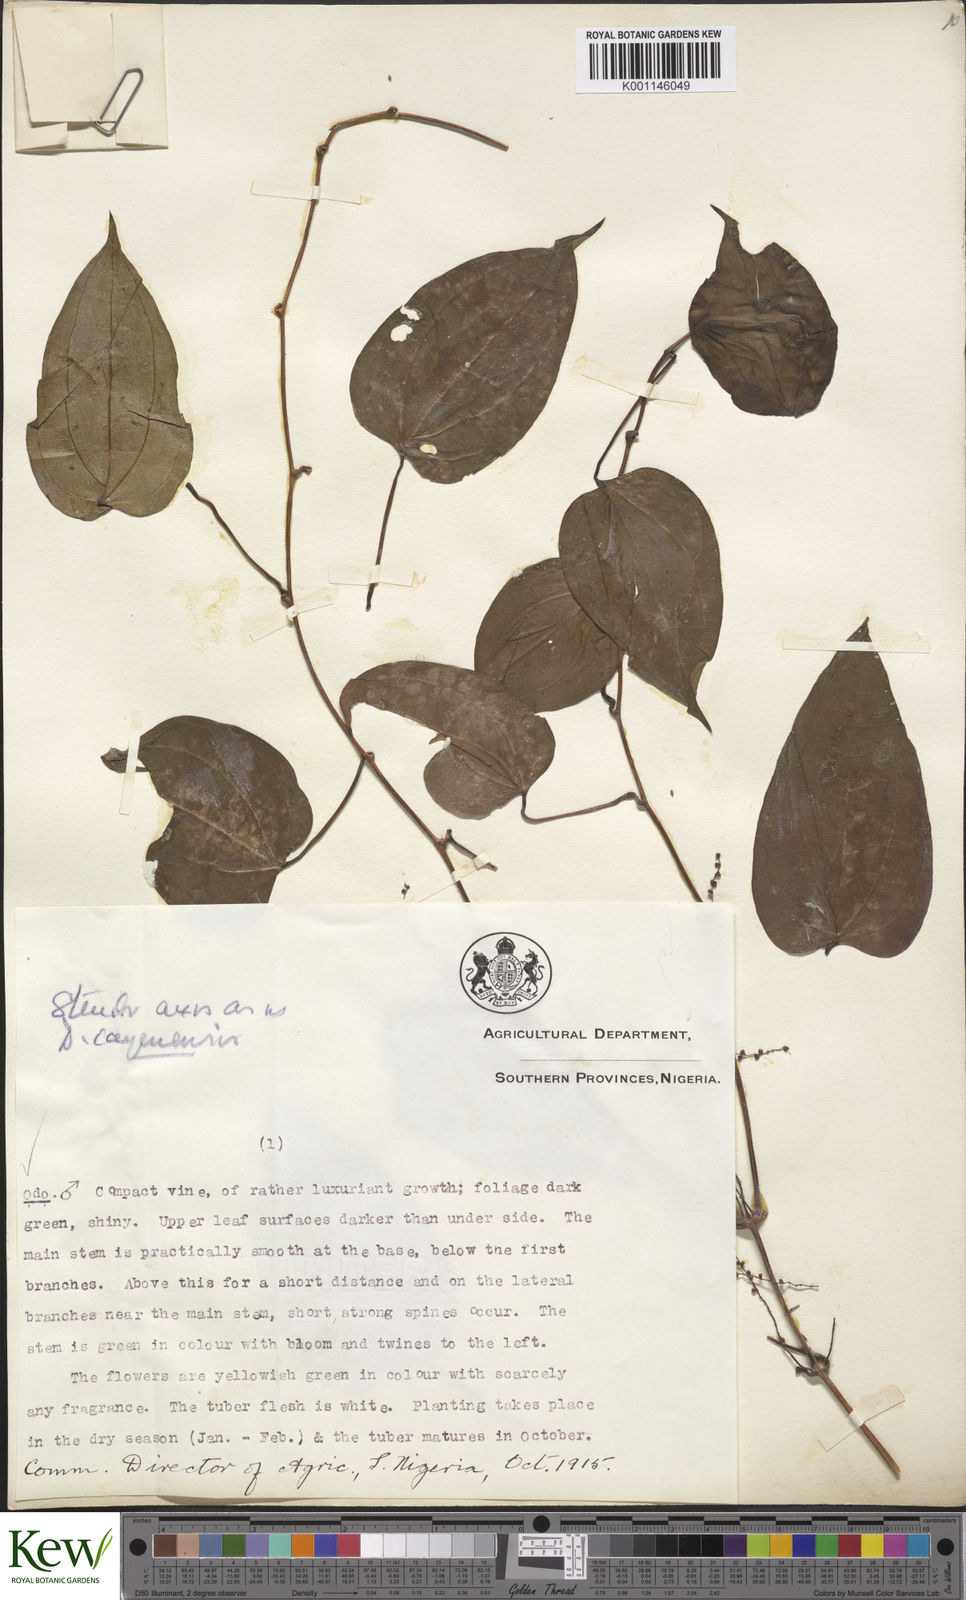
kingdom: Plantae
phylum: Tracheophyta
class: Liliopsida
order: Dioscoreales
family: Dioscoreaceae
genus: Dioscorea
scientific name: Dioscorea baya
